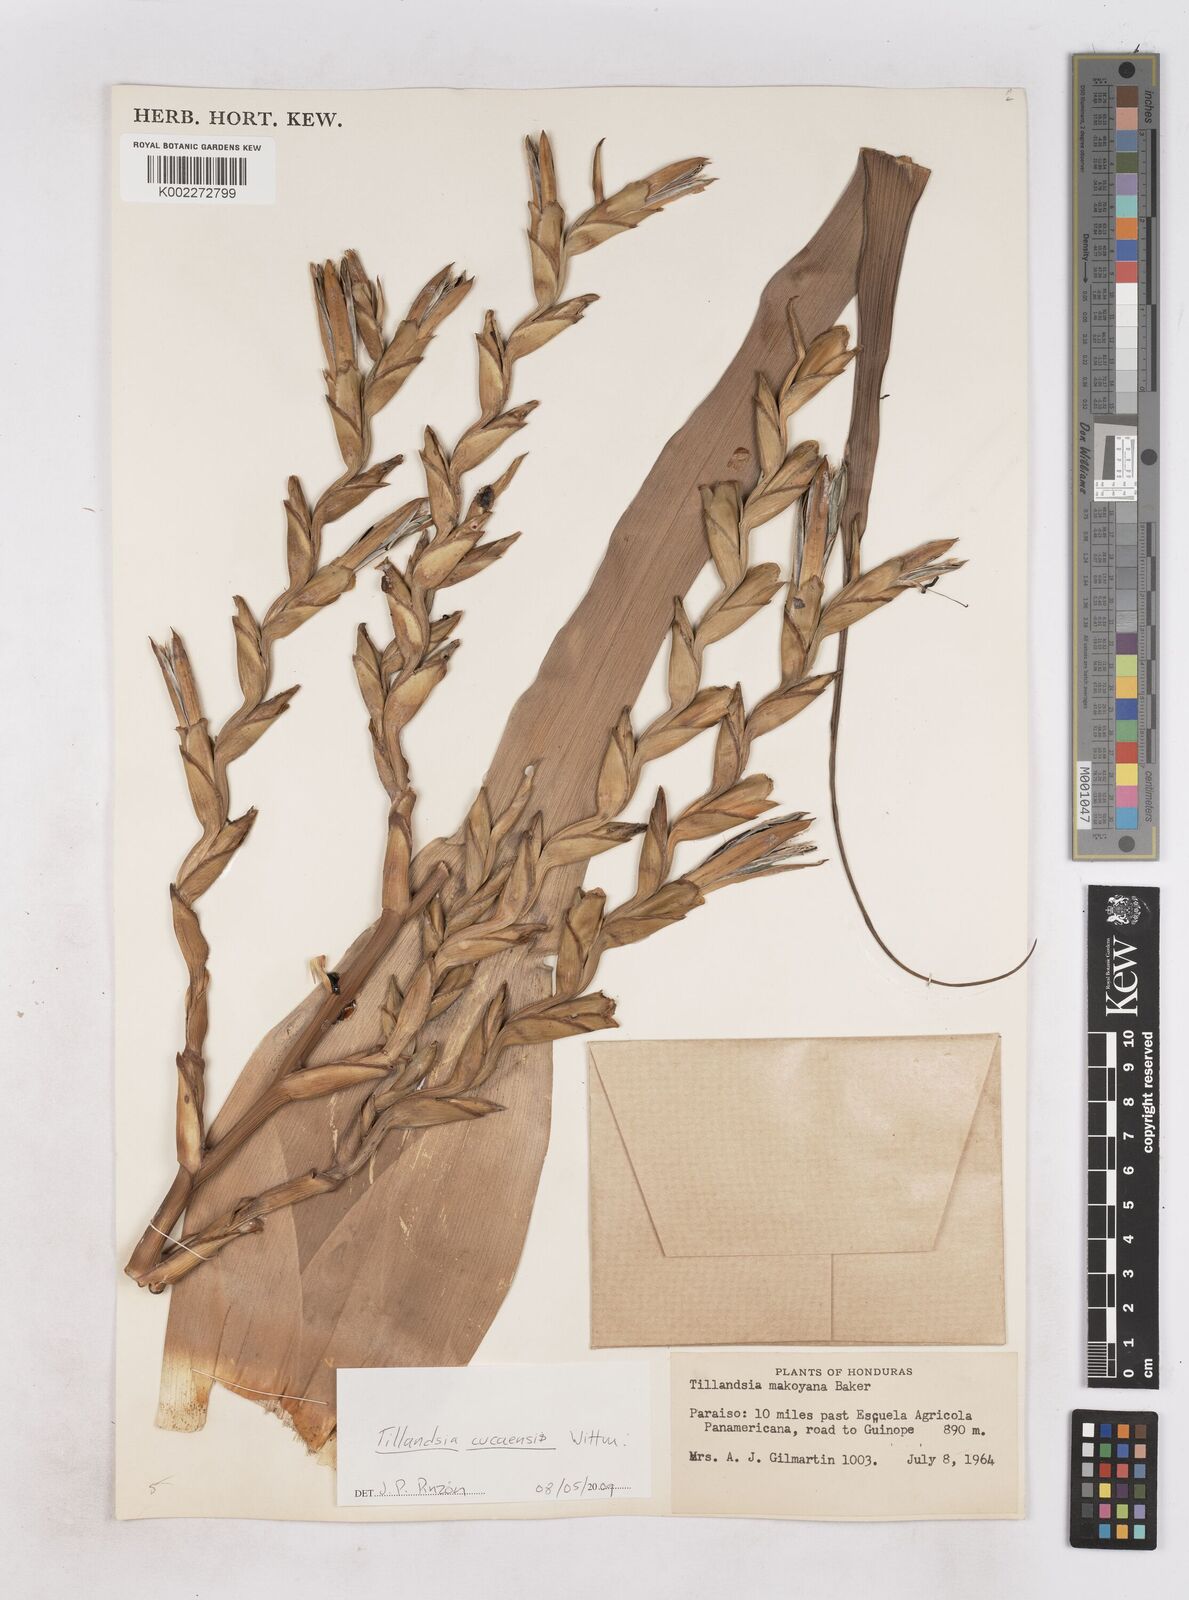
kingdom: Plantae
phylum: Tracheophyta
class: Liliopsida
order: Poales
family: Bromeliaceae
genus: Tillandsia
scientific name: Tillandsia makoyana
